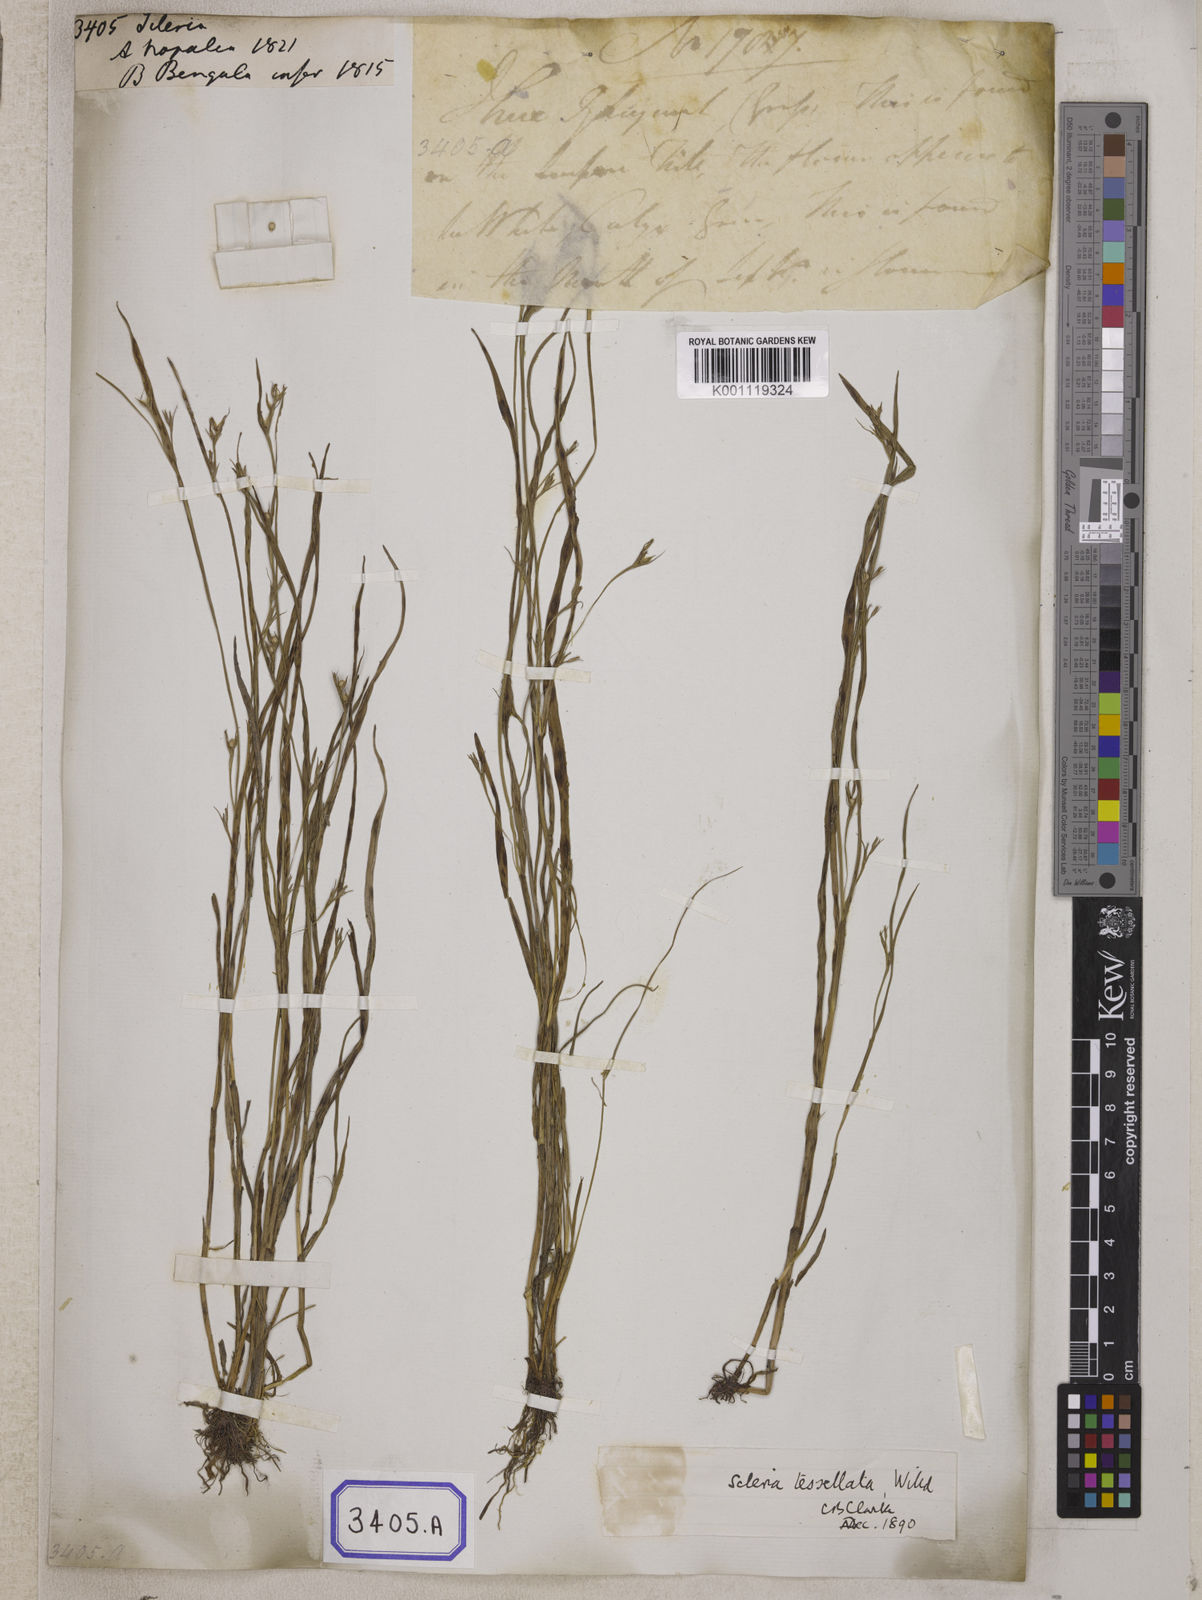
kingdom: Plantae
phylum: Tracheophyta
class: Liliopsida
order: Poales
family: Cyperaceae
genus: Hypolytrum
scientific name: Hypolytrum
